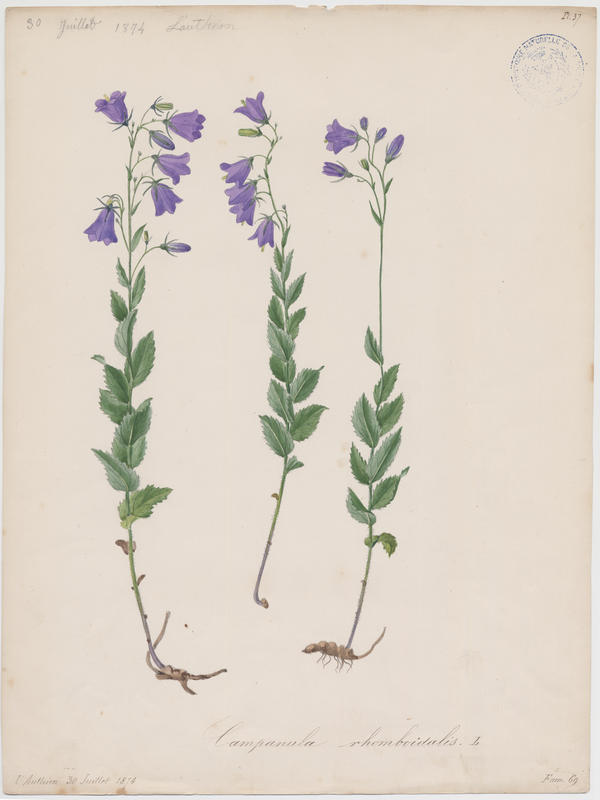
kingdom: Plantae
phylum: Tracheophyta
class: Magnoliopsida
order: Asterales
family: Campanulaceae
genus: Campanula
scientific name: Campanula rhomboidalis
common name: Broad-leaved harebell
